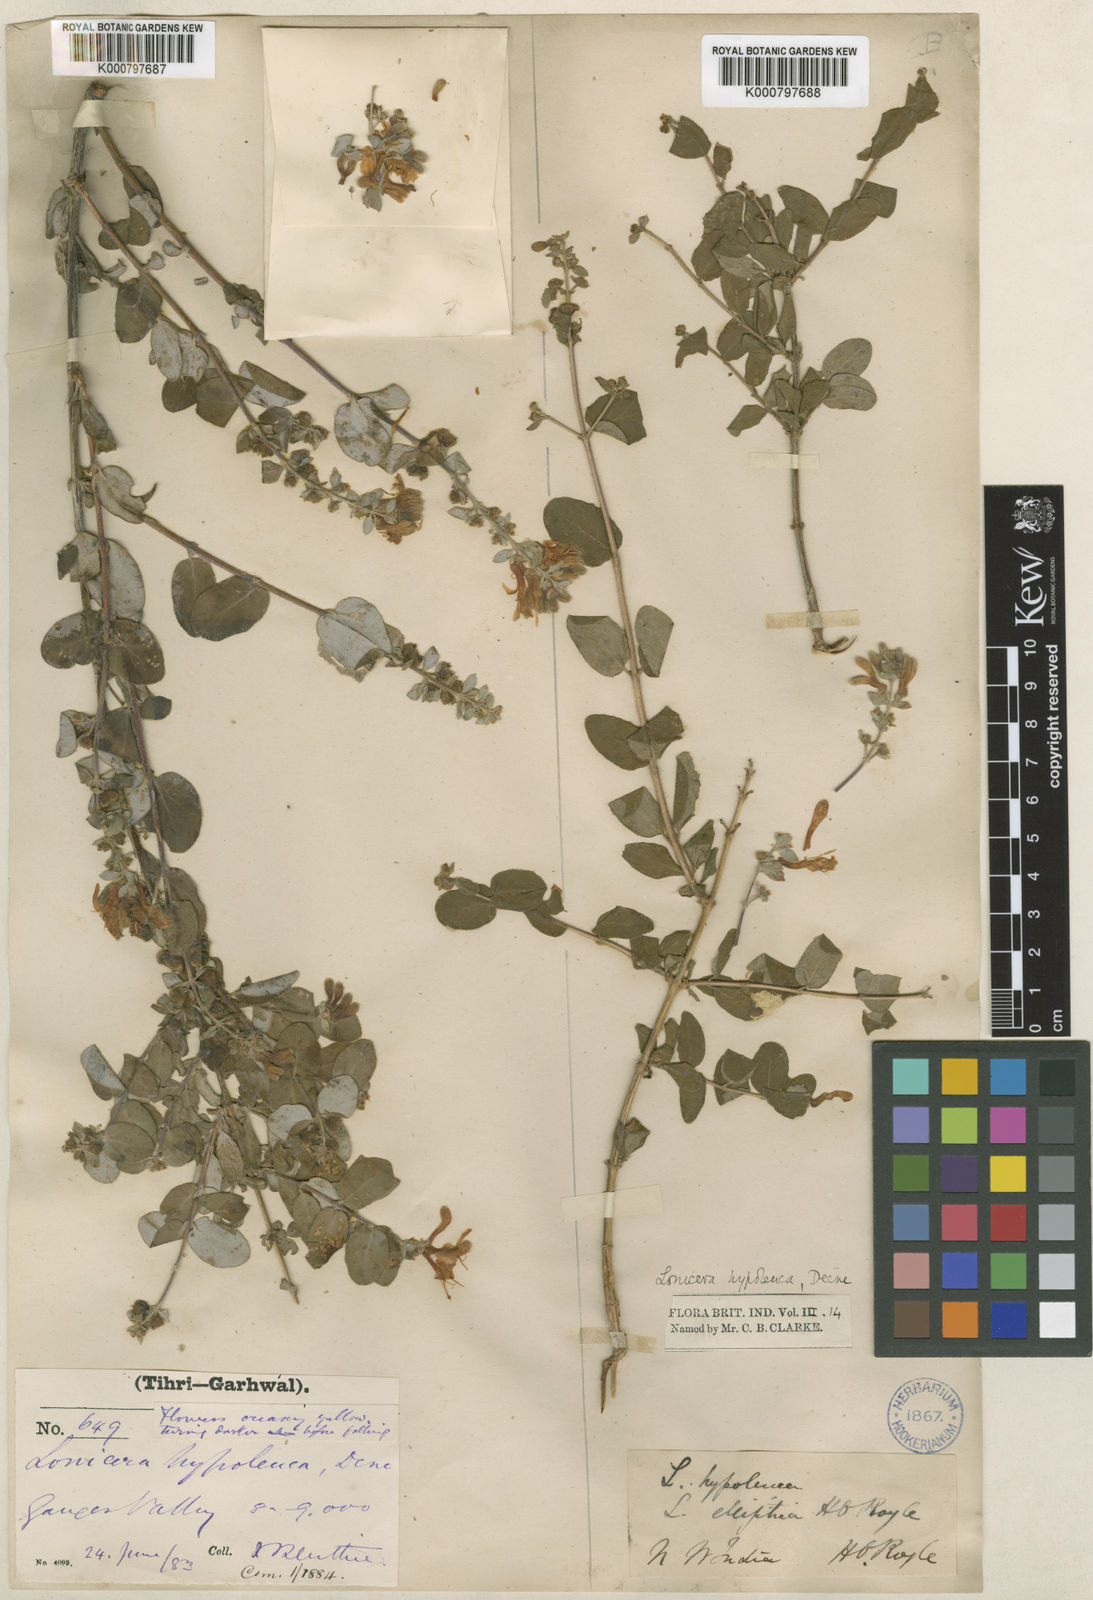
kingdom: Plantae
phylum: Tracheophyta
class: Magnoliopsida
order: Dipsacales
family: Caprifoliaceae
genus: Lonicera
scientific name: Lonicera hypoleuca
